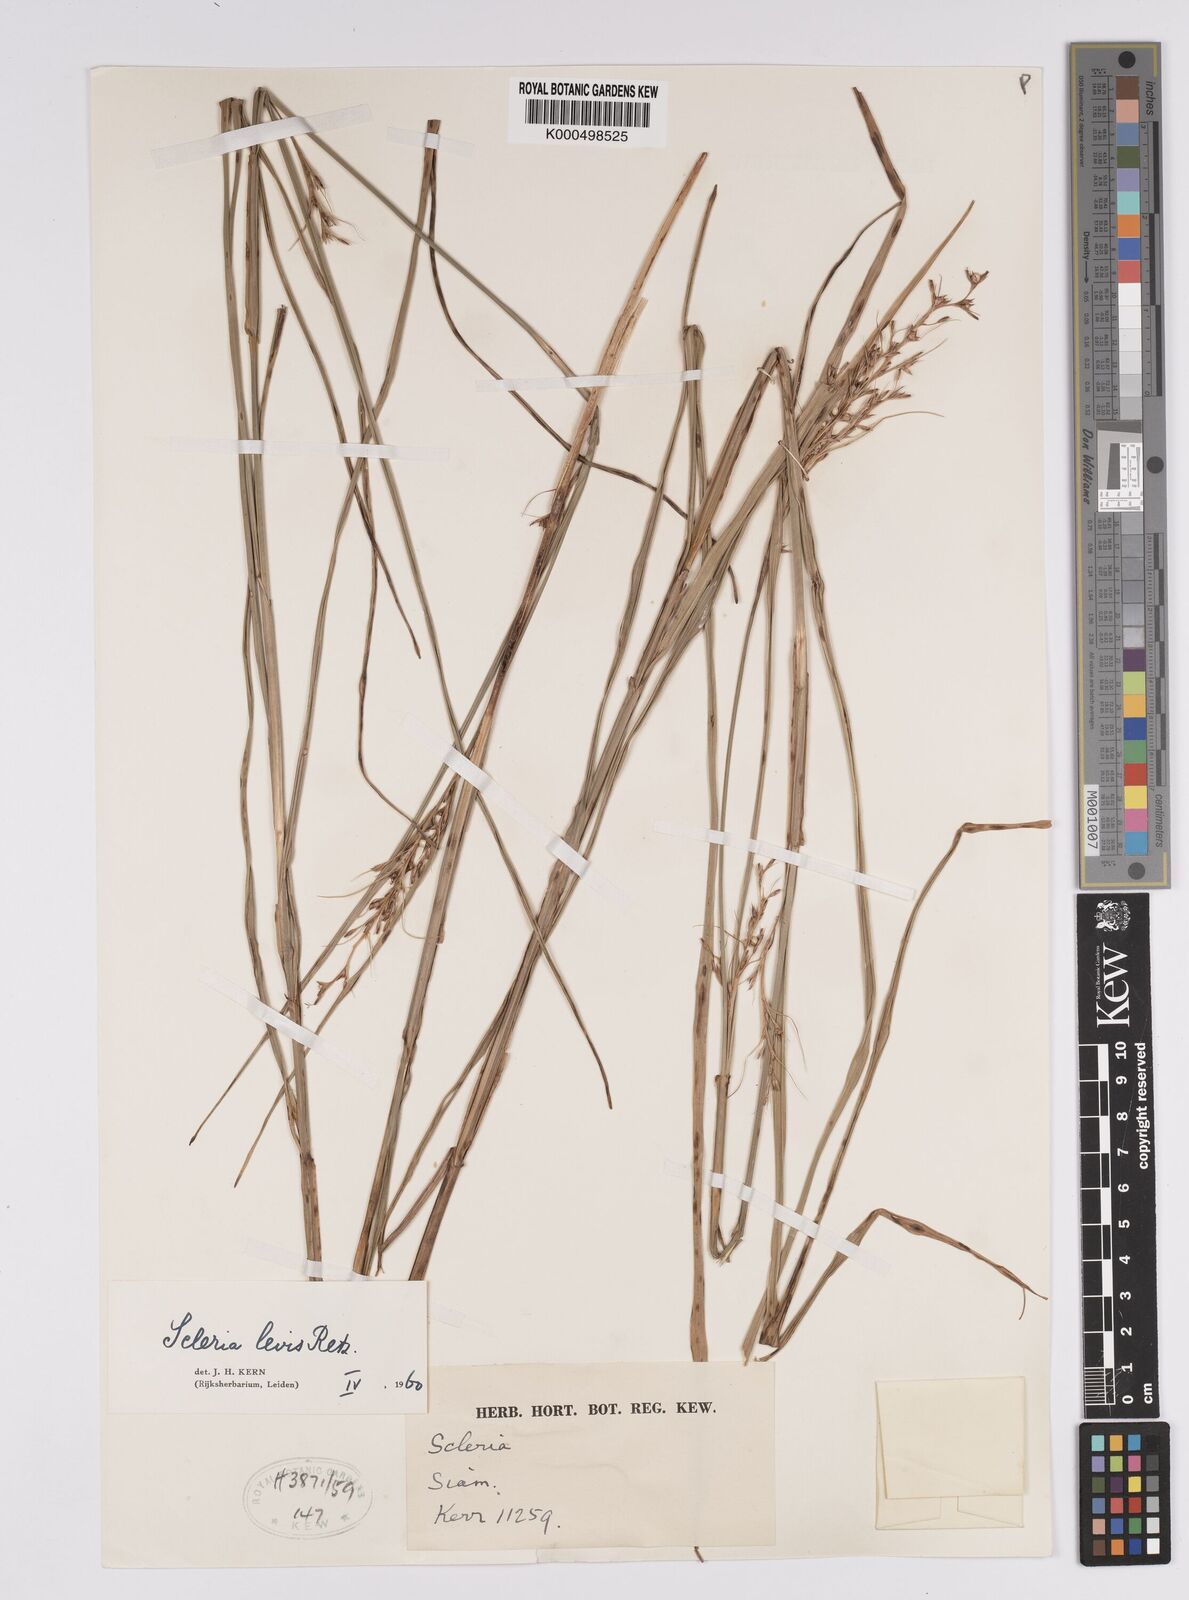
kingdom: Plantae
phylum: Tracheophyta
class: Liliopsida
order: Poales
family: Cyperaceae
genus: Scleria
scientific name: Scleria levis
